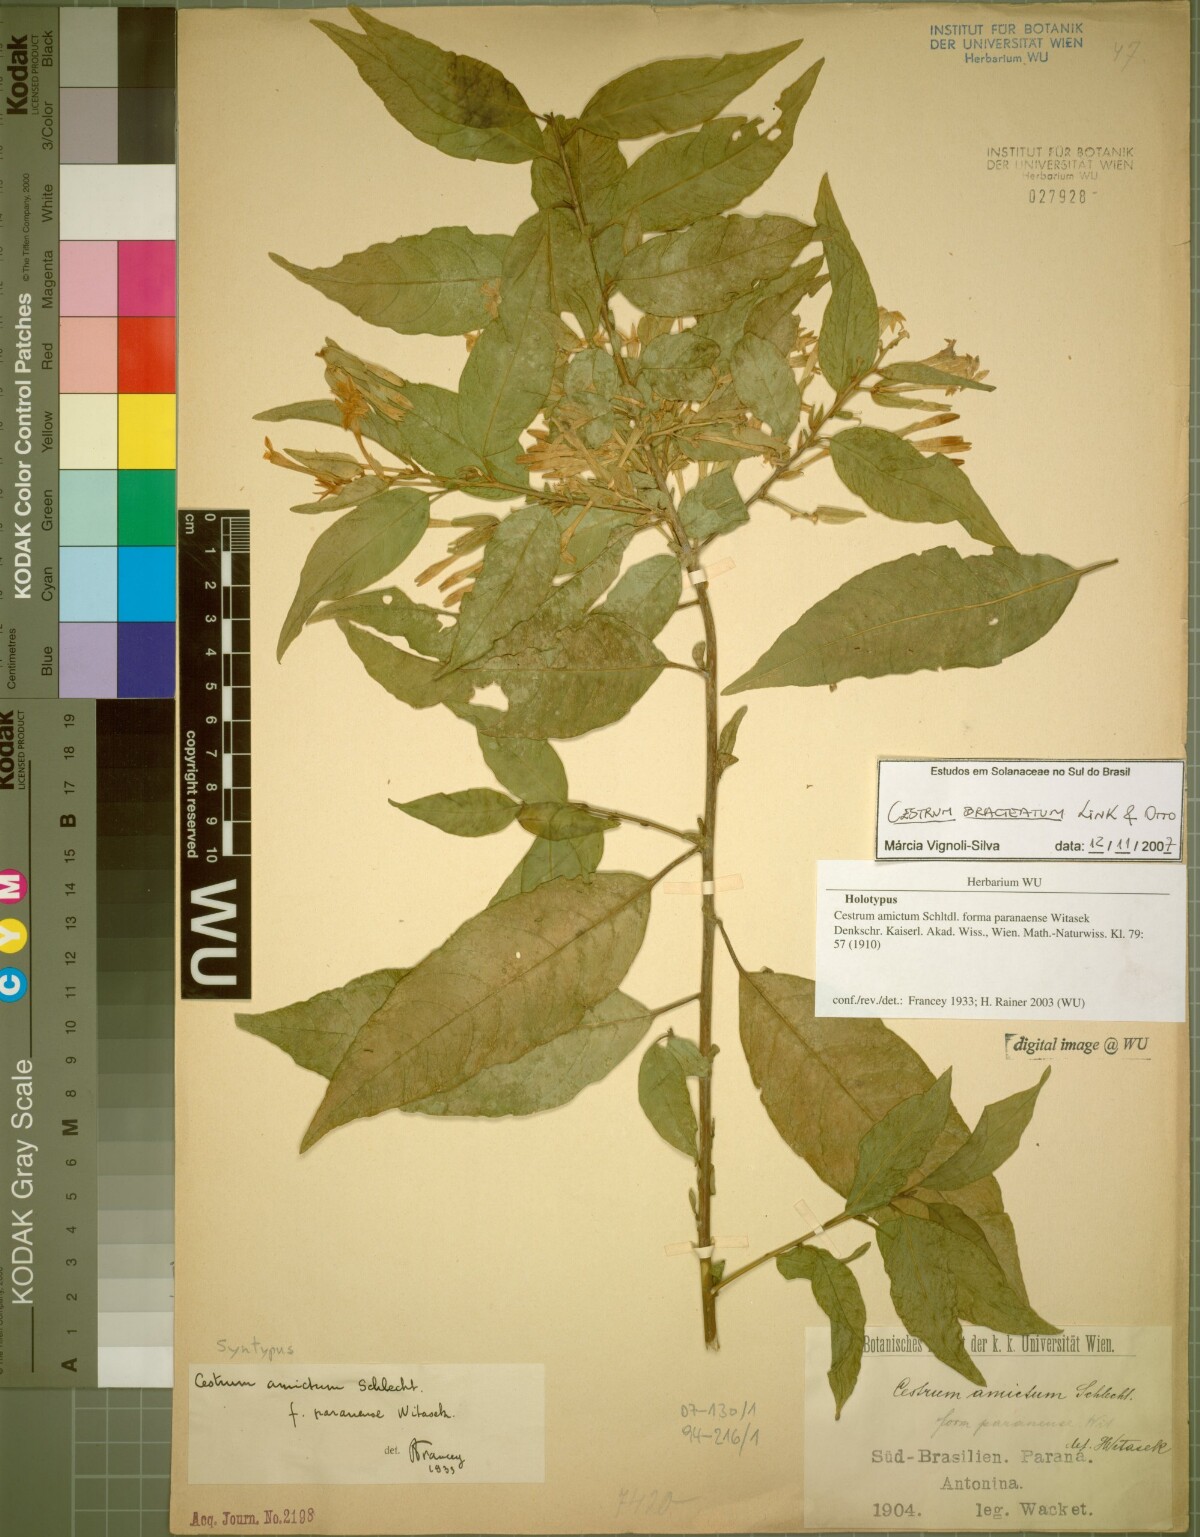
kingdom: Plantae
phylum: Tracheophyta
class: Magnoliopsida
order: Solanales
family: Solanaceae
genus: Cestrum
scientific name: Cestrum bracteatum
